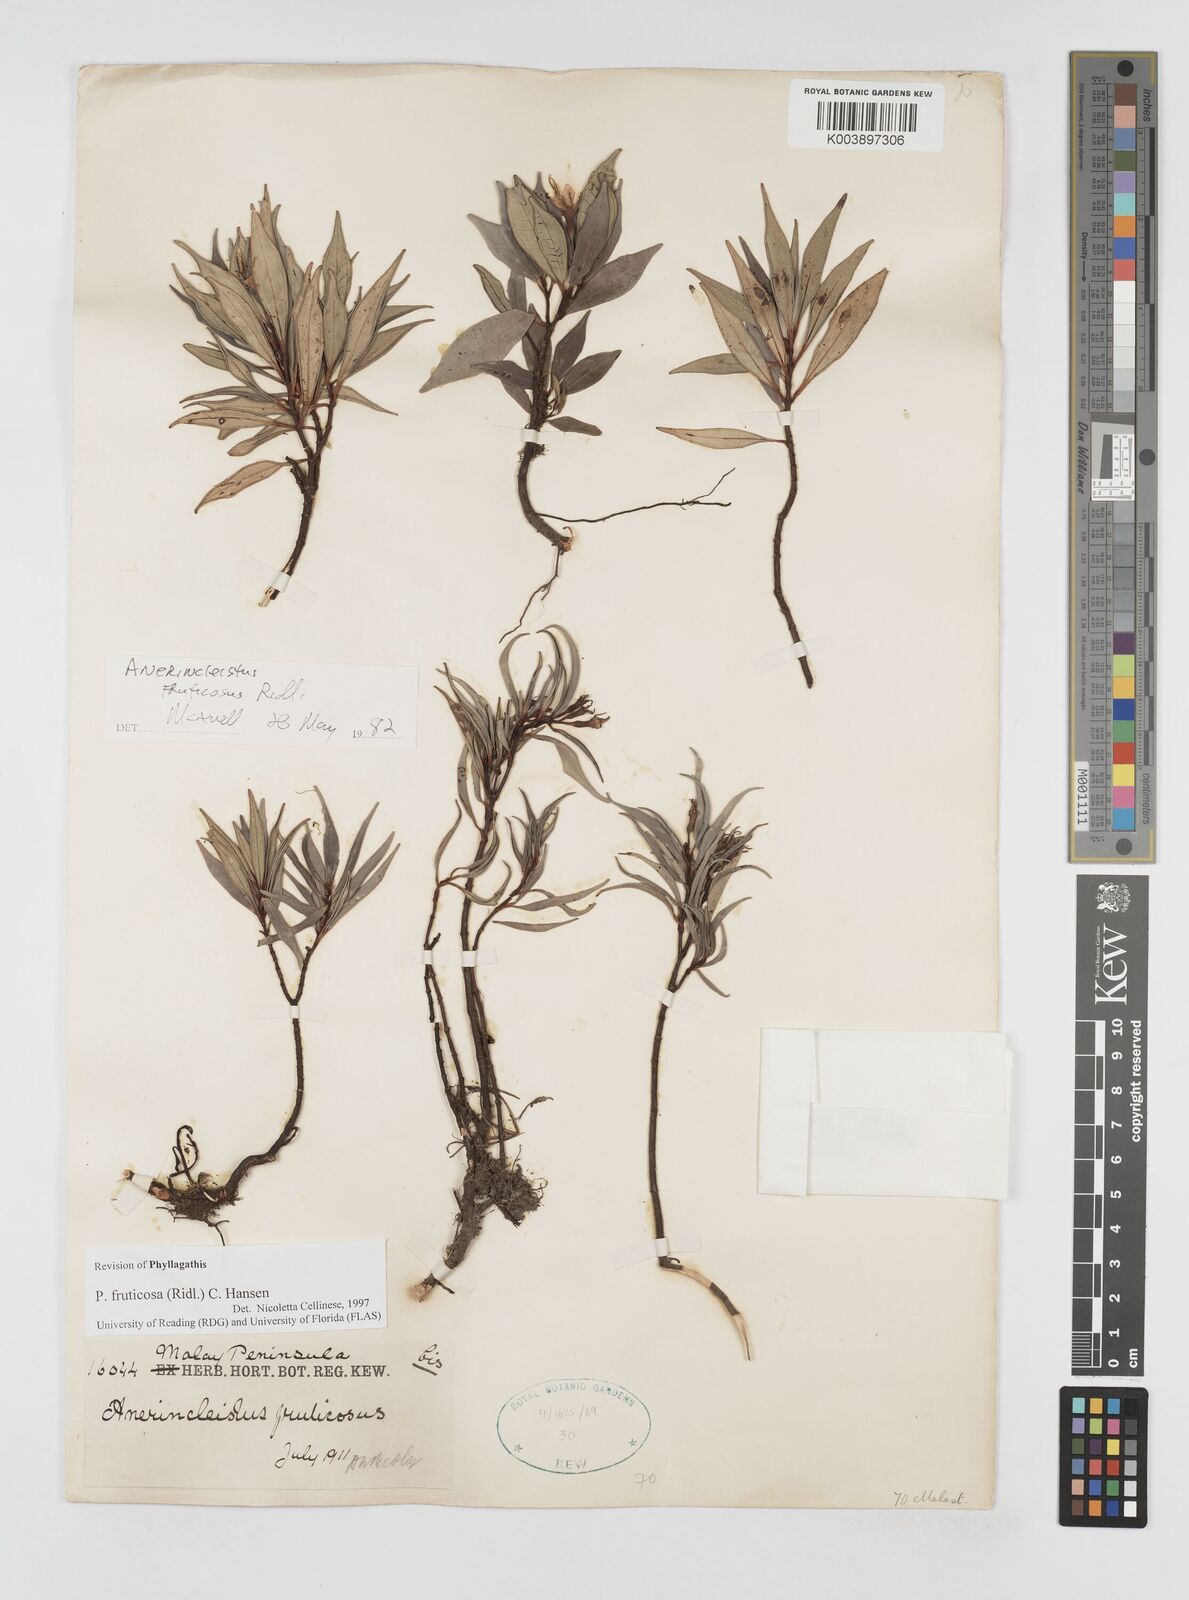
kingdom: Plantae
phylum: Tracheophyta
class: Magnoliopsida
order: Myrtales
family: Melastomataceae
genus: Anerincleistus
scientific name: Anerincleistus fruticosus
